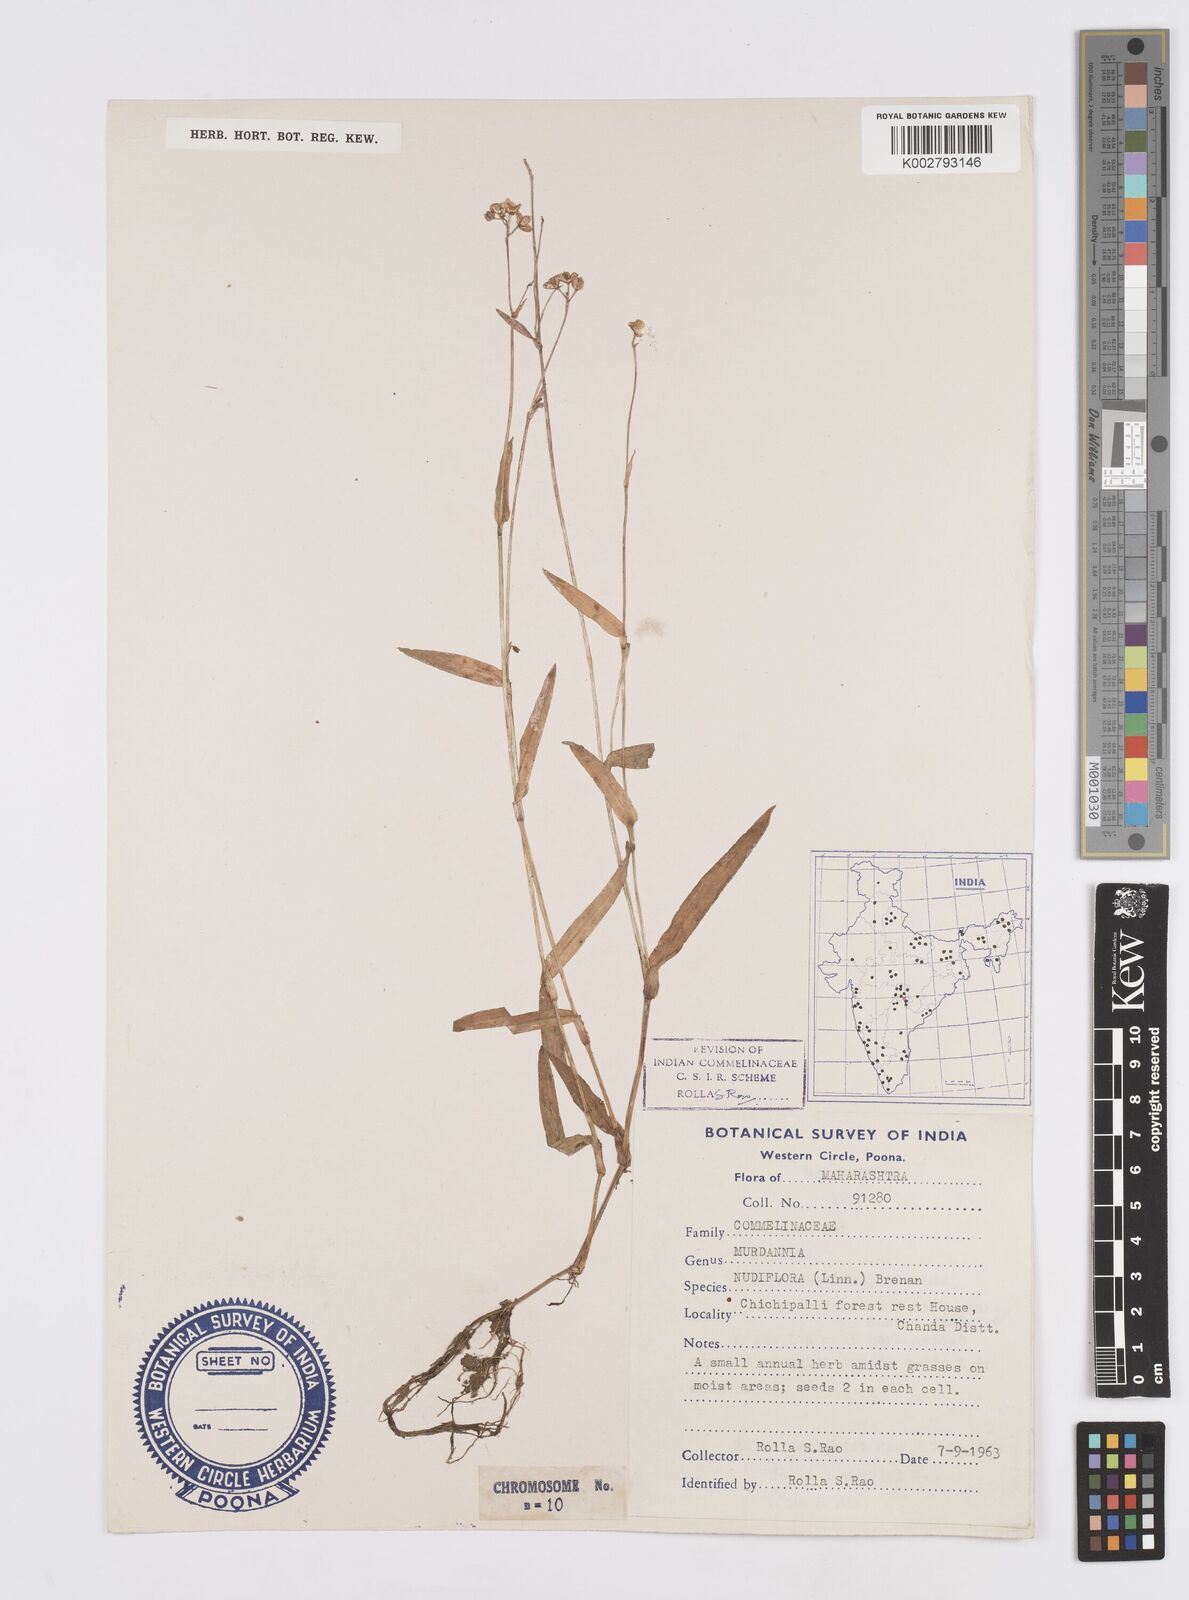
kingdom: Plantae
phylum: Tracheophyta
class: Liliopsida
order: Commelinales
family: Commelinaceae
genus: Murdannia
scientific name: Murdannia nudiflora
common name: Nakedstem dewflower
